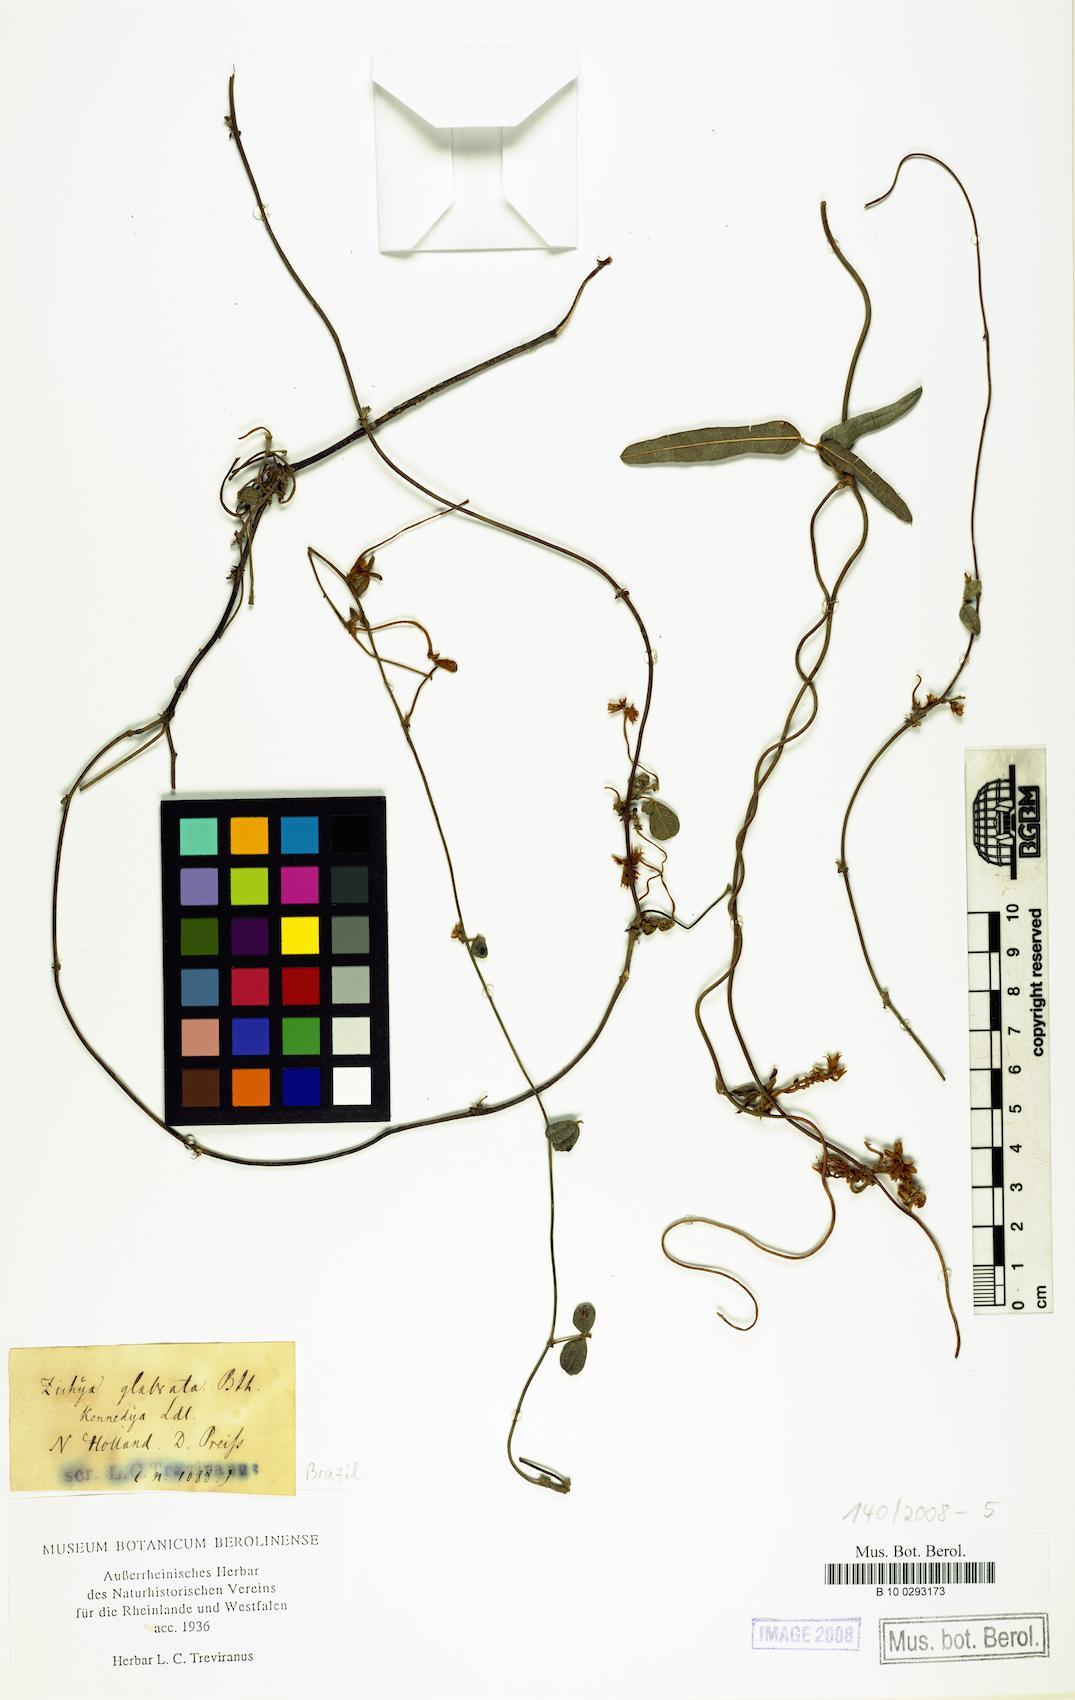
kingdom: Plantae
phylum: Tracheophyta
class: Magnoliopsida
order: Fabales
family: Fabaceae
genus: Kennedia
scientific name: Kennedia
